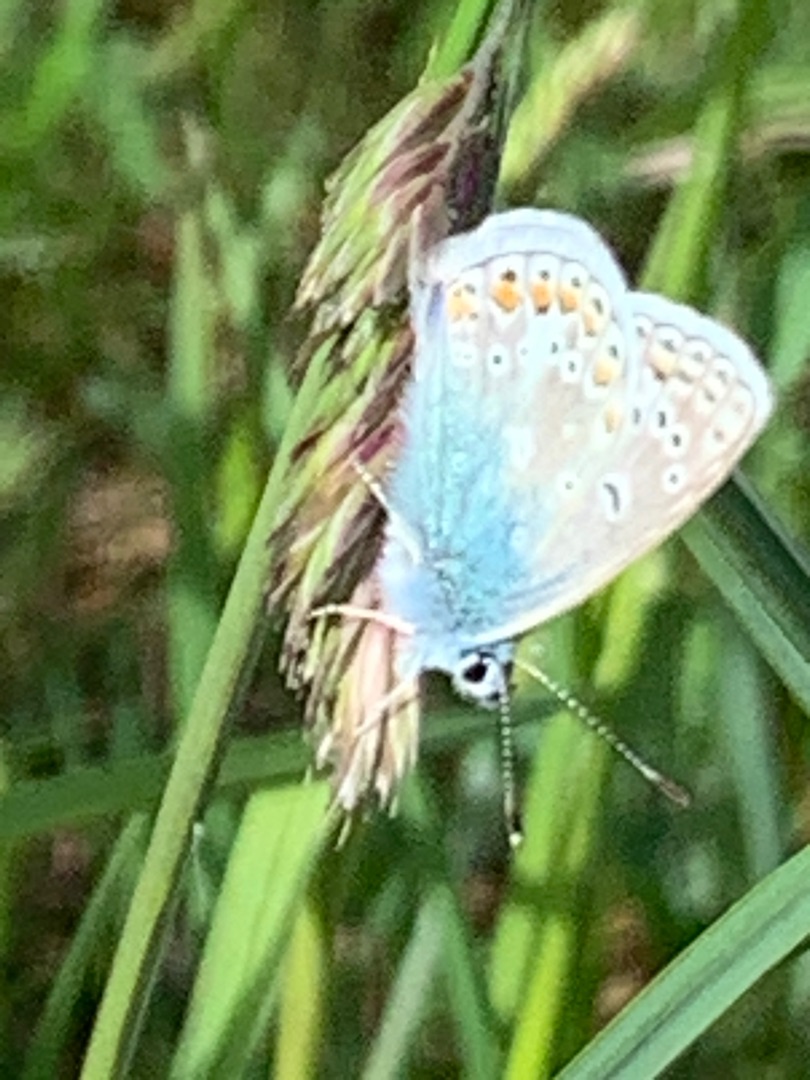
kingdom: Animalia
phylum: Arthropoda
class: Insecta
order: Lepidoptera
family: Lycaenidae
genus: Polyommatus
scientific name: Polyommatus icarus
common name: Almindelig blåfugl
